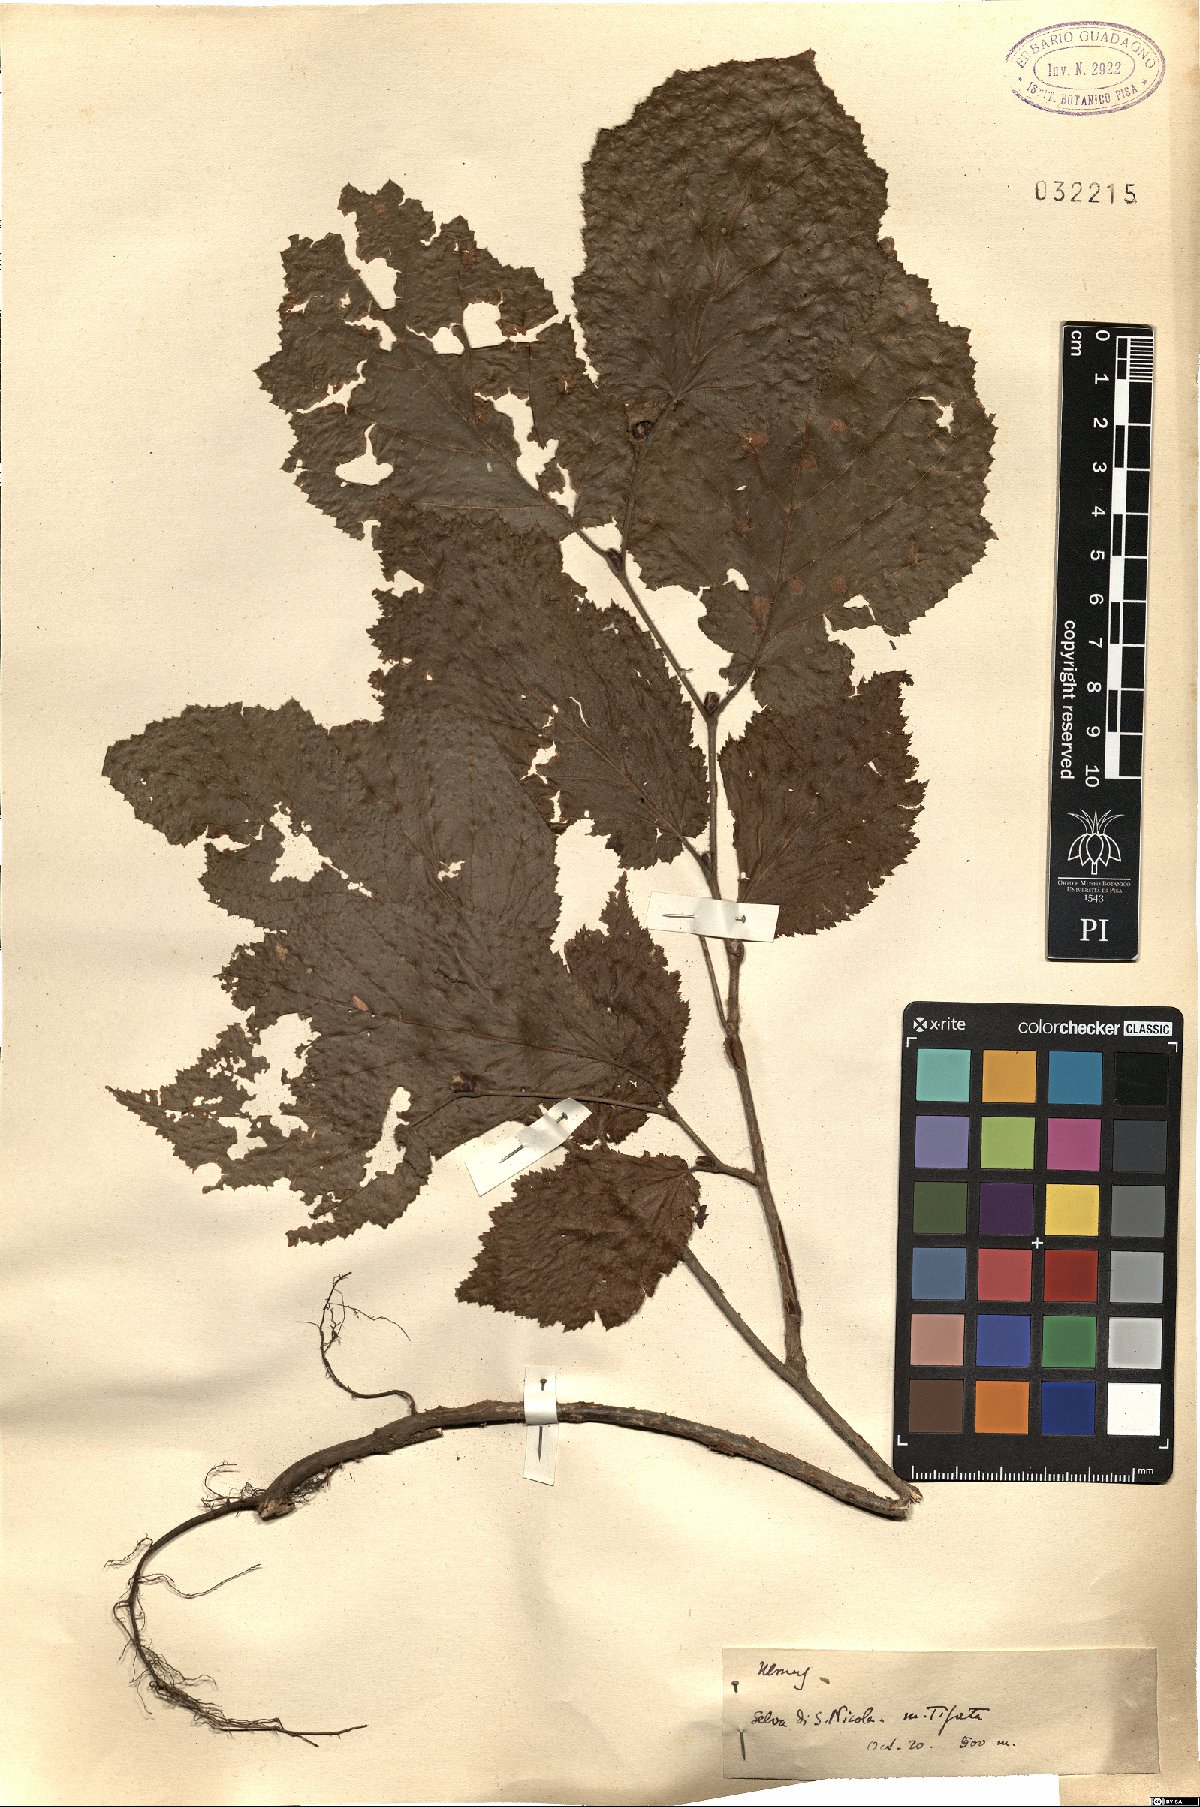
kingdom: Plantae
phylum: Tracheophyta
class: Magnoliopsida
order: Rosales
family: Ulmaceae
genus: Ulmus
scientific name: Ulmus
